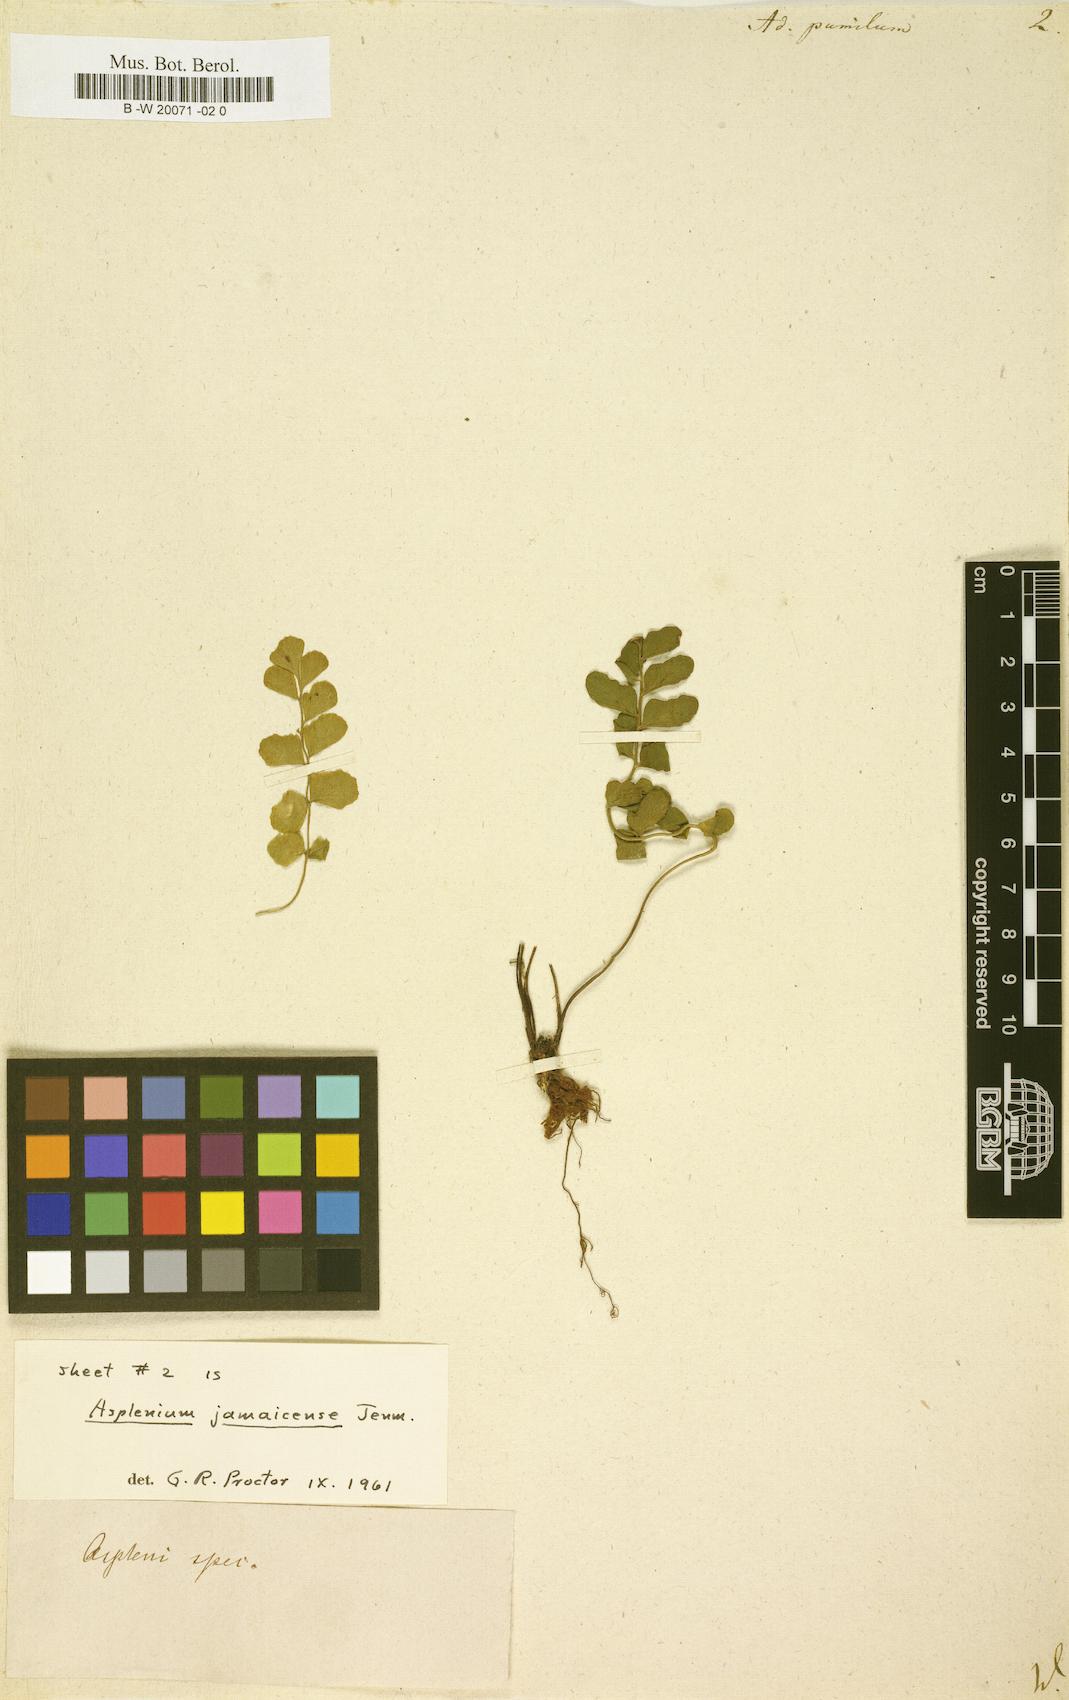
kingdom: Plantae
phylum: Tracheophyta
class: Polypodiopsida
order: Polypodiales
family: Pteridaceae
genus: Adiantum
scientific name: Adiantum pumilum
